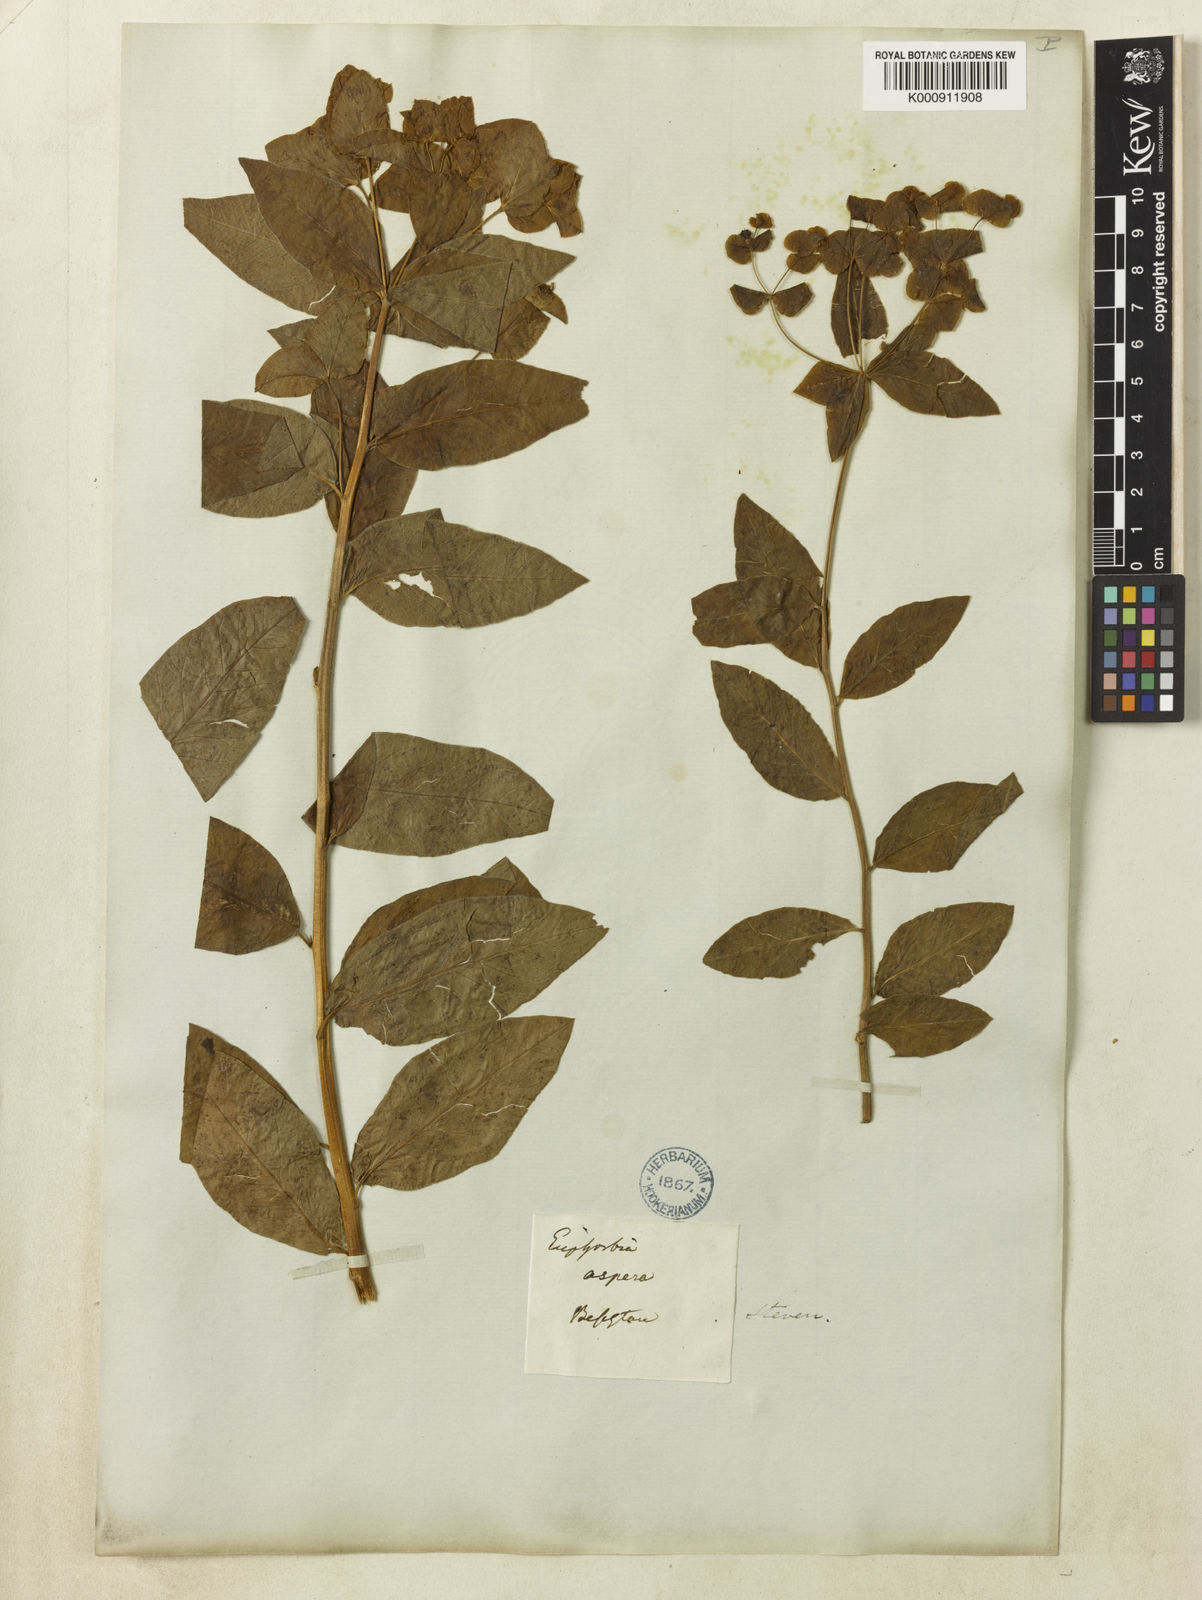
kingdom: Plantae
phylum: Tracheophyta
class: Magnoliopsida
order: Malpighiales
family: Euphorbiaceae
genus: Euphorbia
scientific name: Euphorbia squamosa
